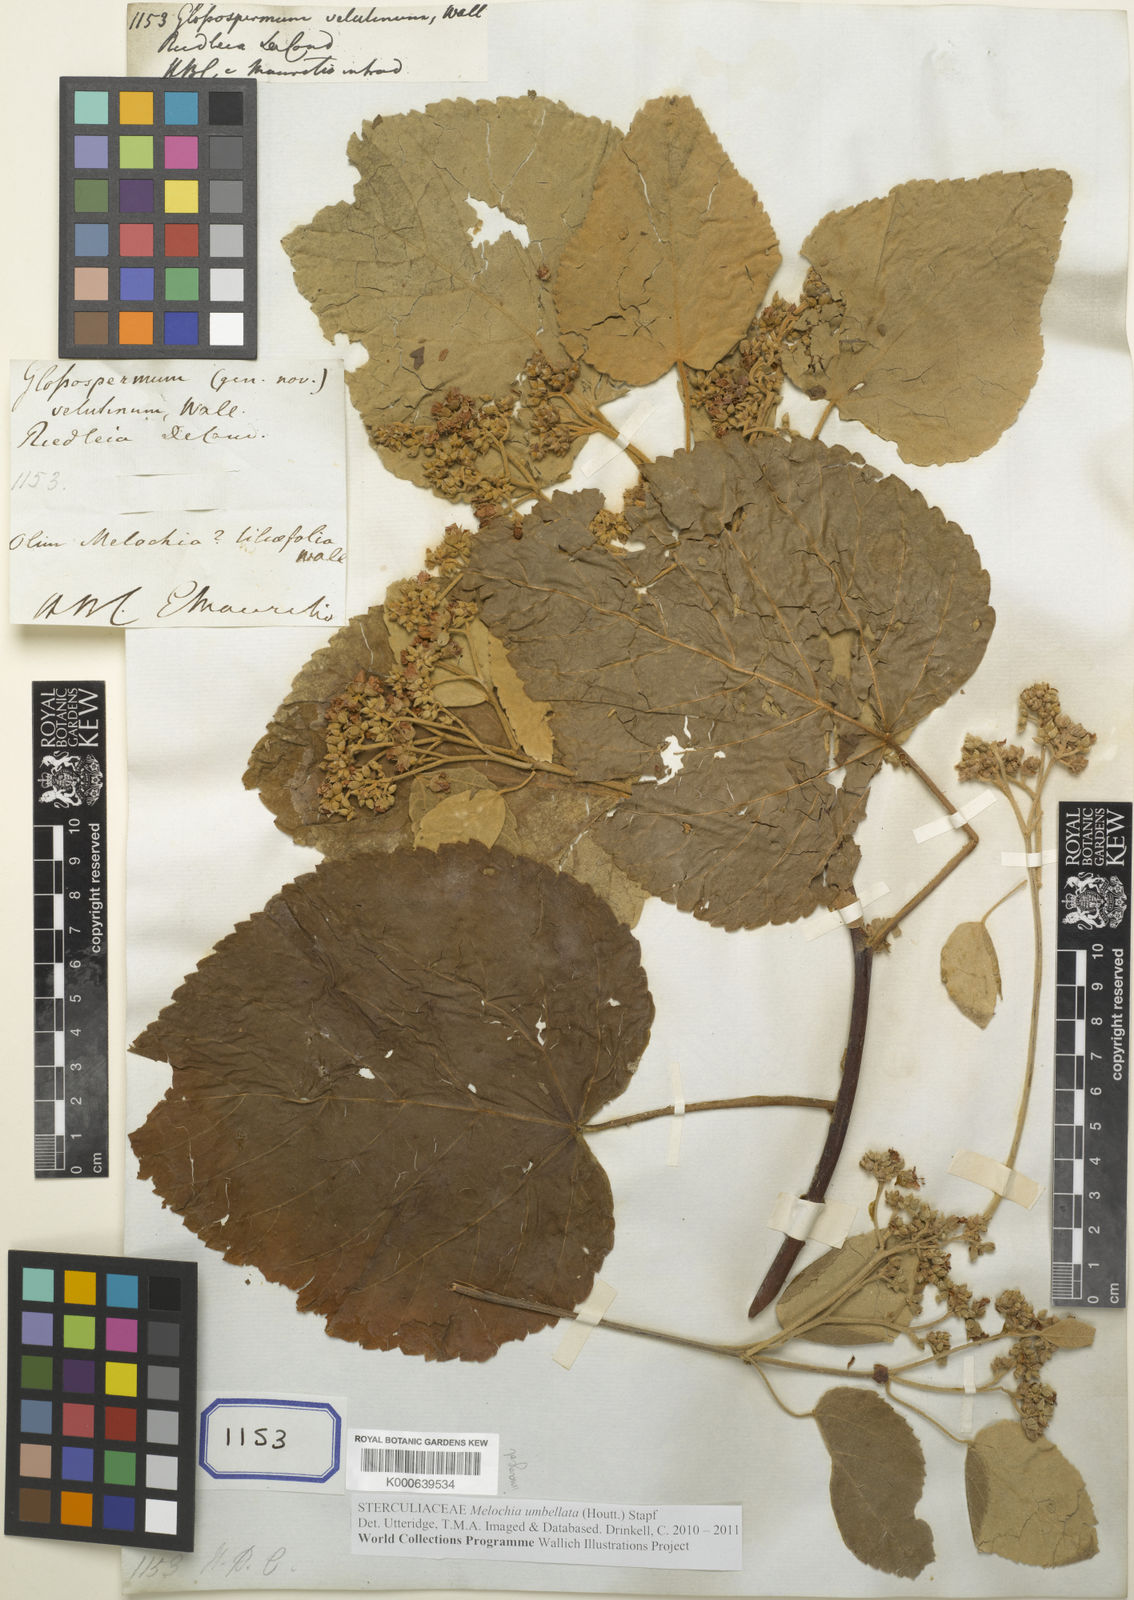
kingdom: Plantae
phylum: Tracheophyta
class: Magnoliopsida
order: Malvales
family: Sterculiaceae
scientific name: Sterculiaceae
